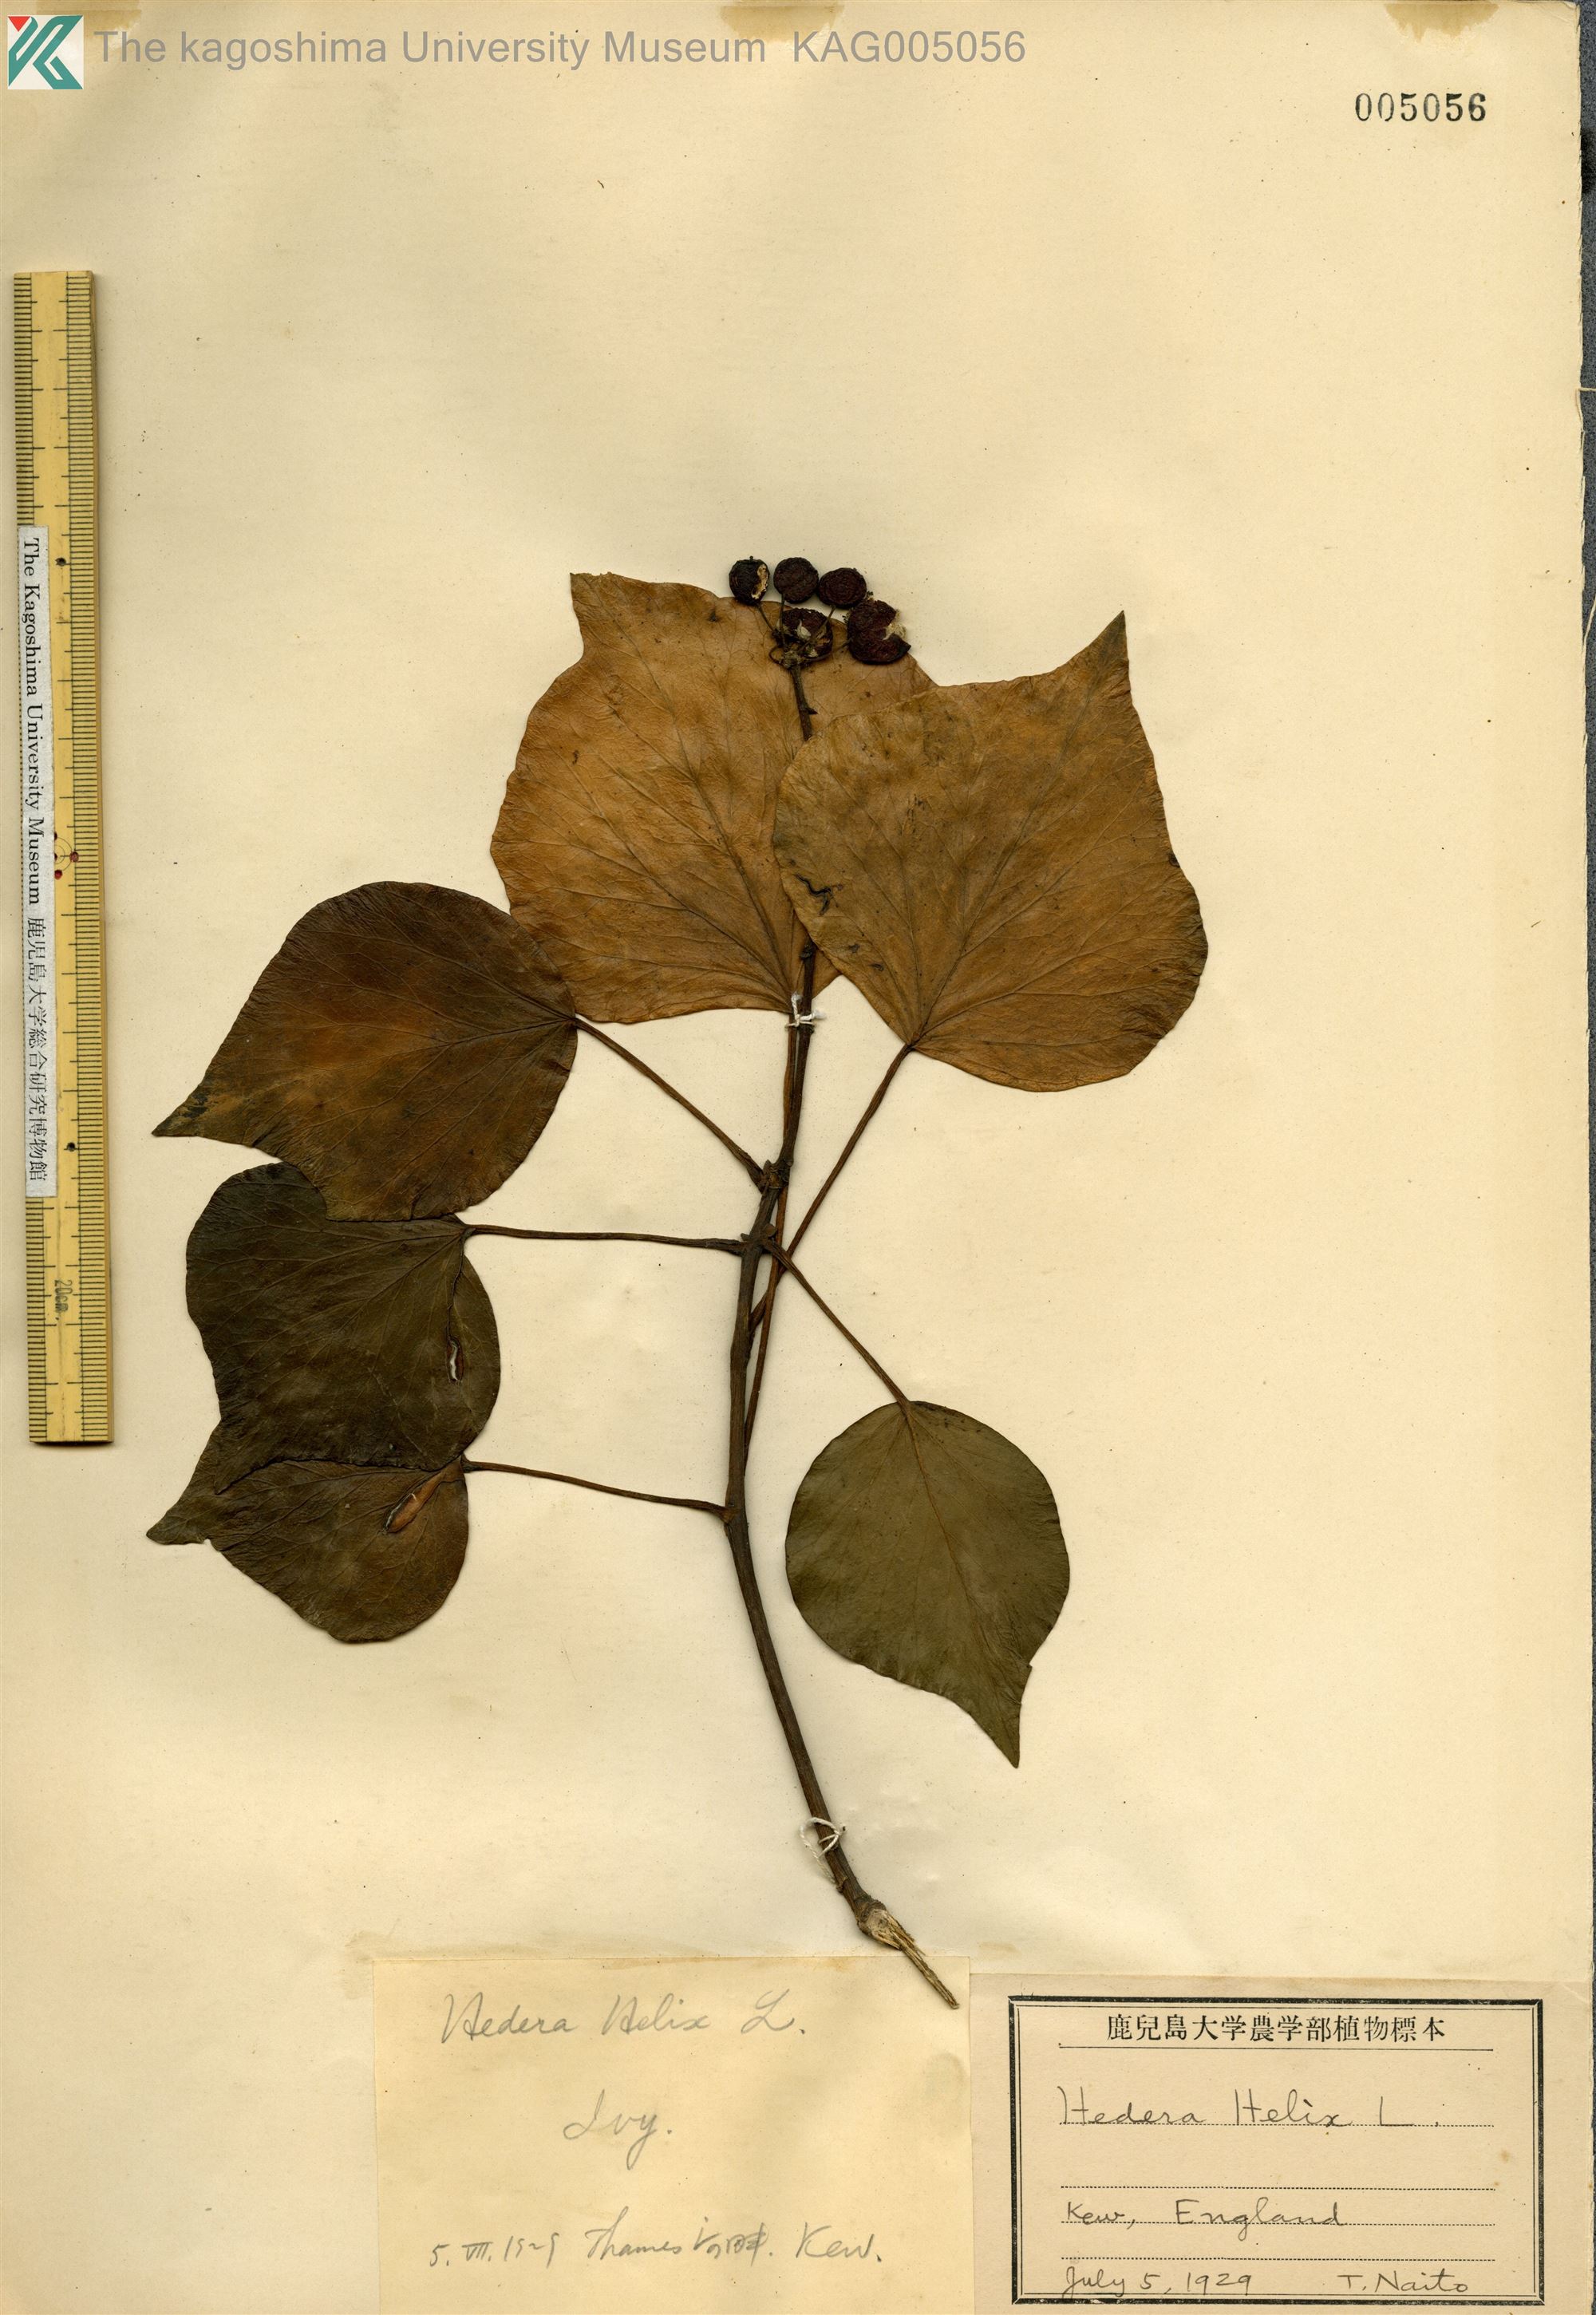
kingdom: Plantae
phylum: Tracheophyta
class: Magnoliopsida
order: Apiales
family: Araliaceae
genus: Hedera
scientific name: Hedera helix
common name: Ivy
